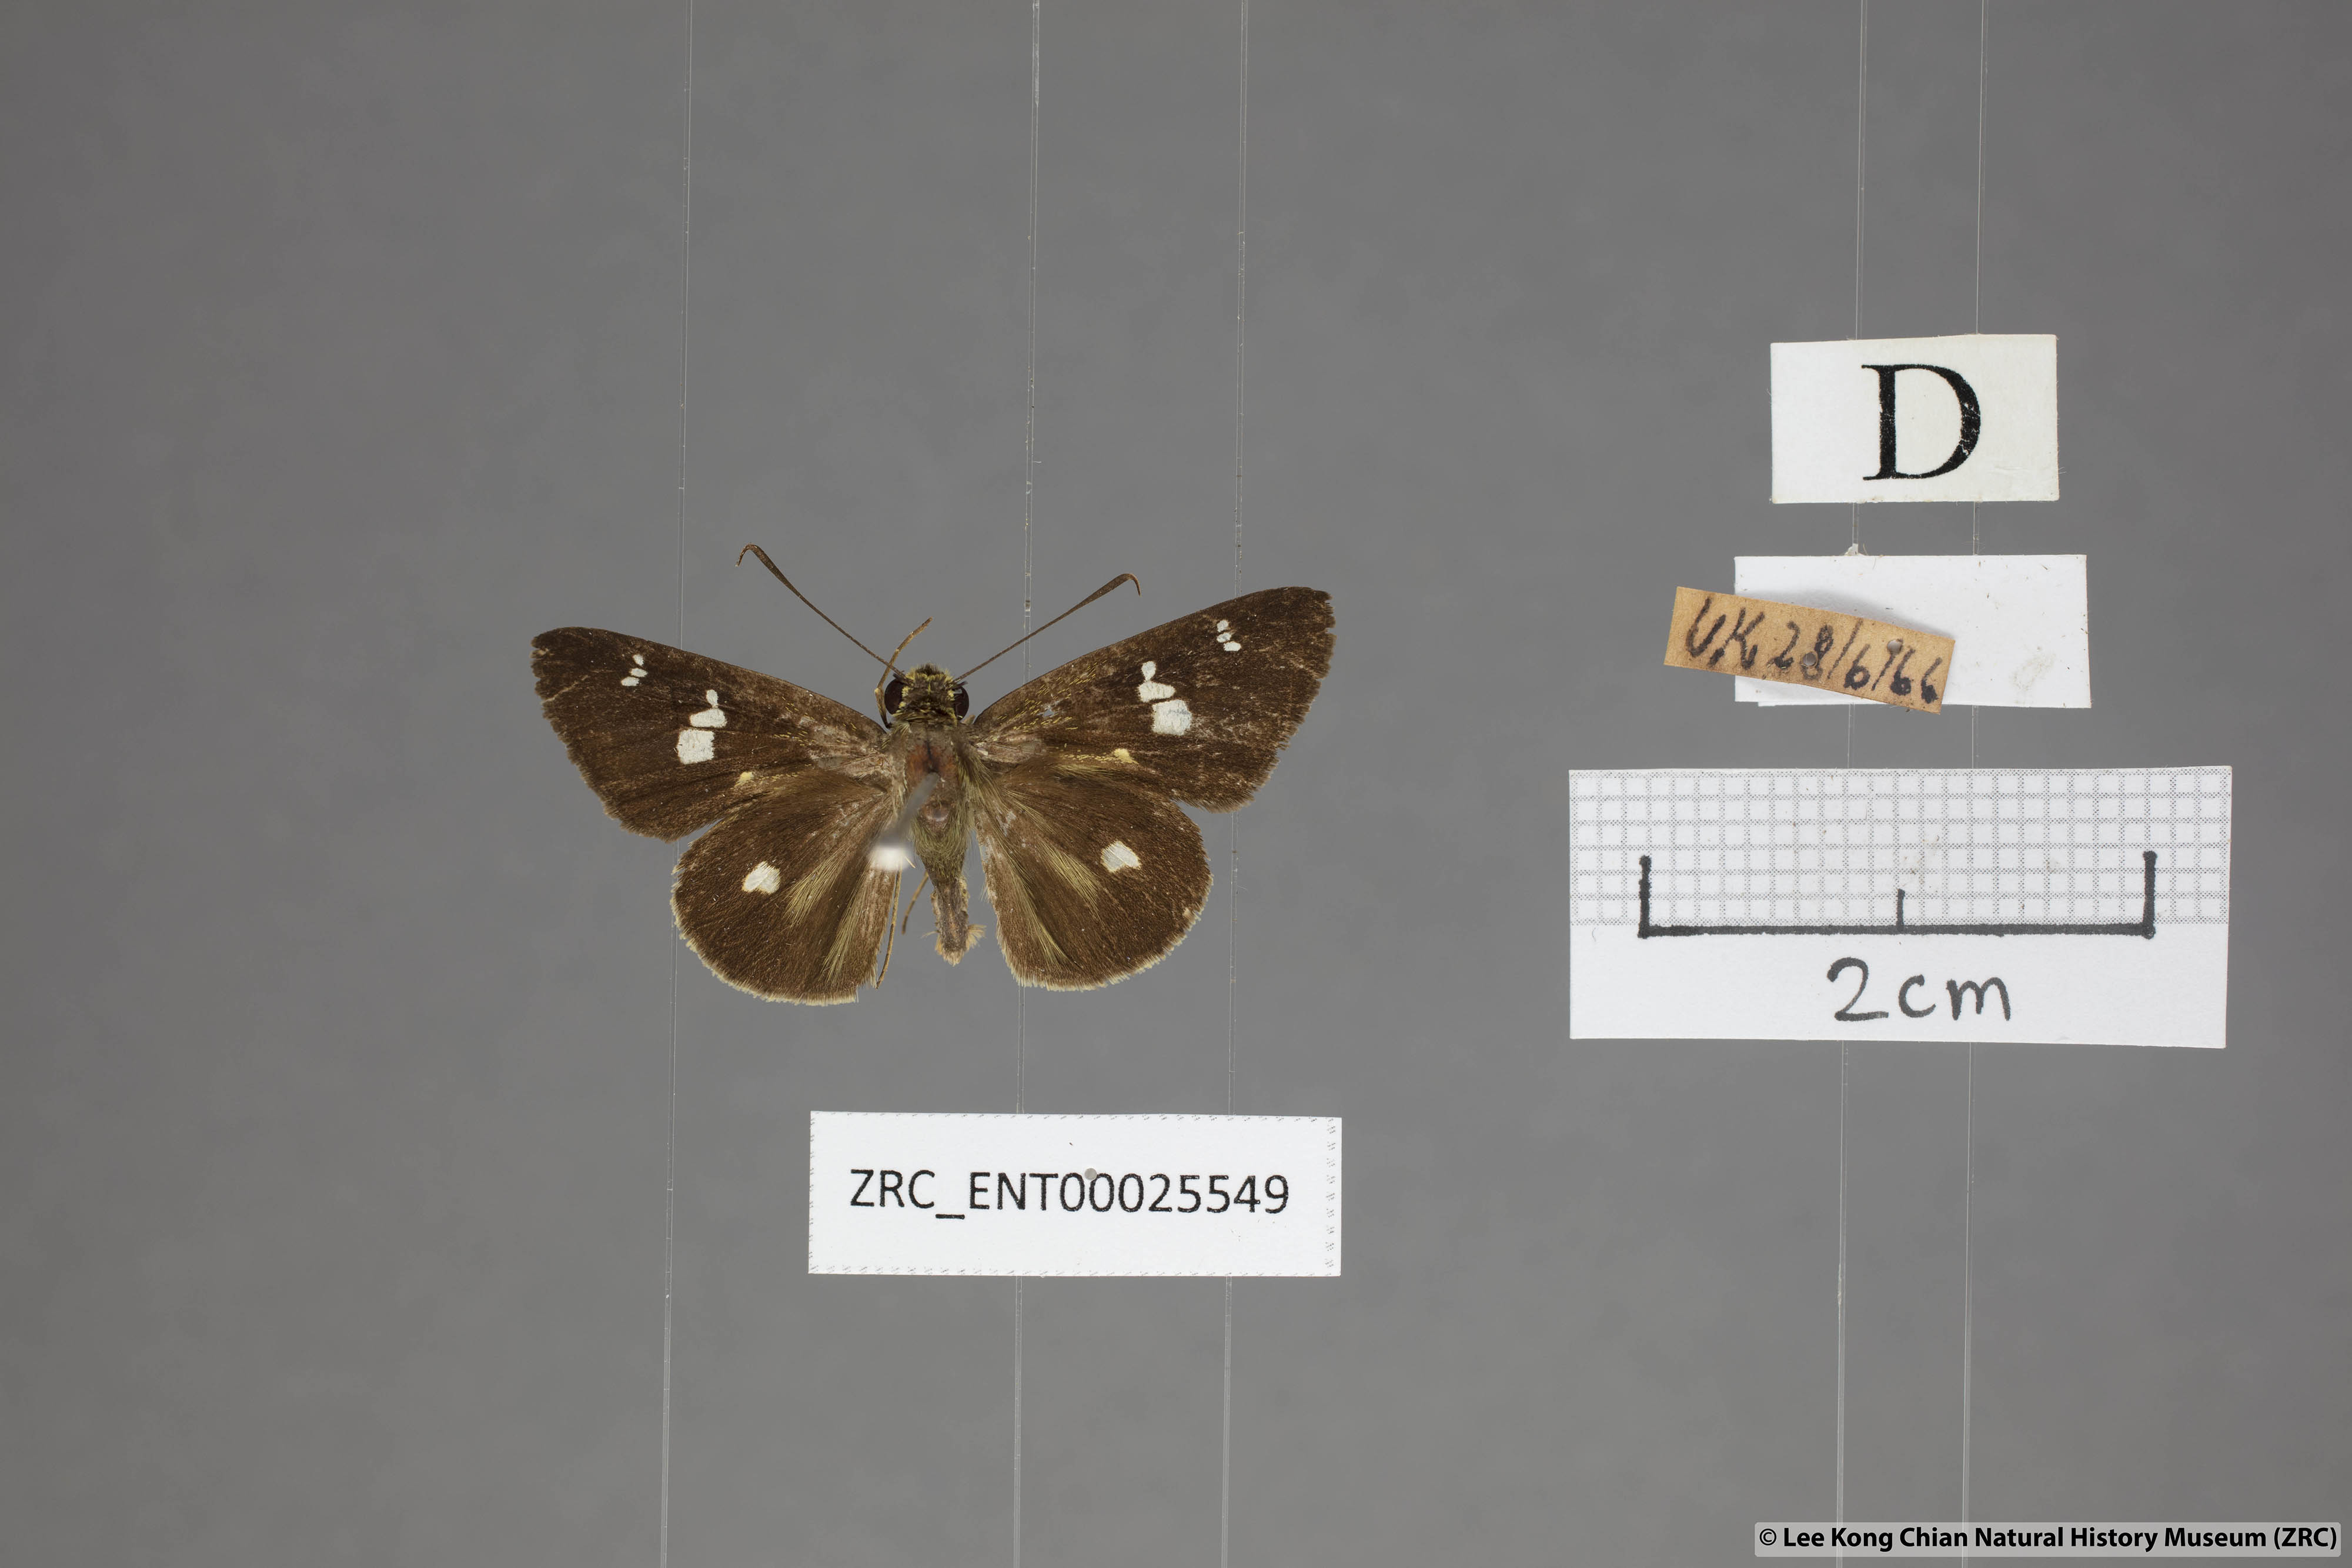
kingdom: Animalia
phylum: Arthropoda
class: Insecta
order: Lepidoptera
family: Hesperiidae
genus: Scobura
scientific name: Scobura phiditia
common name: Malay forest bob
